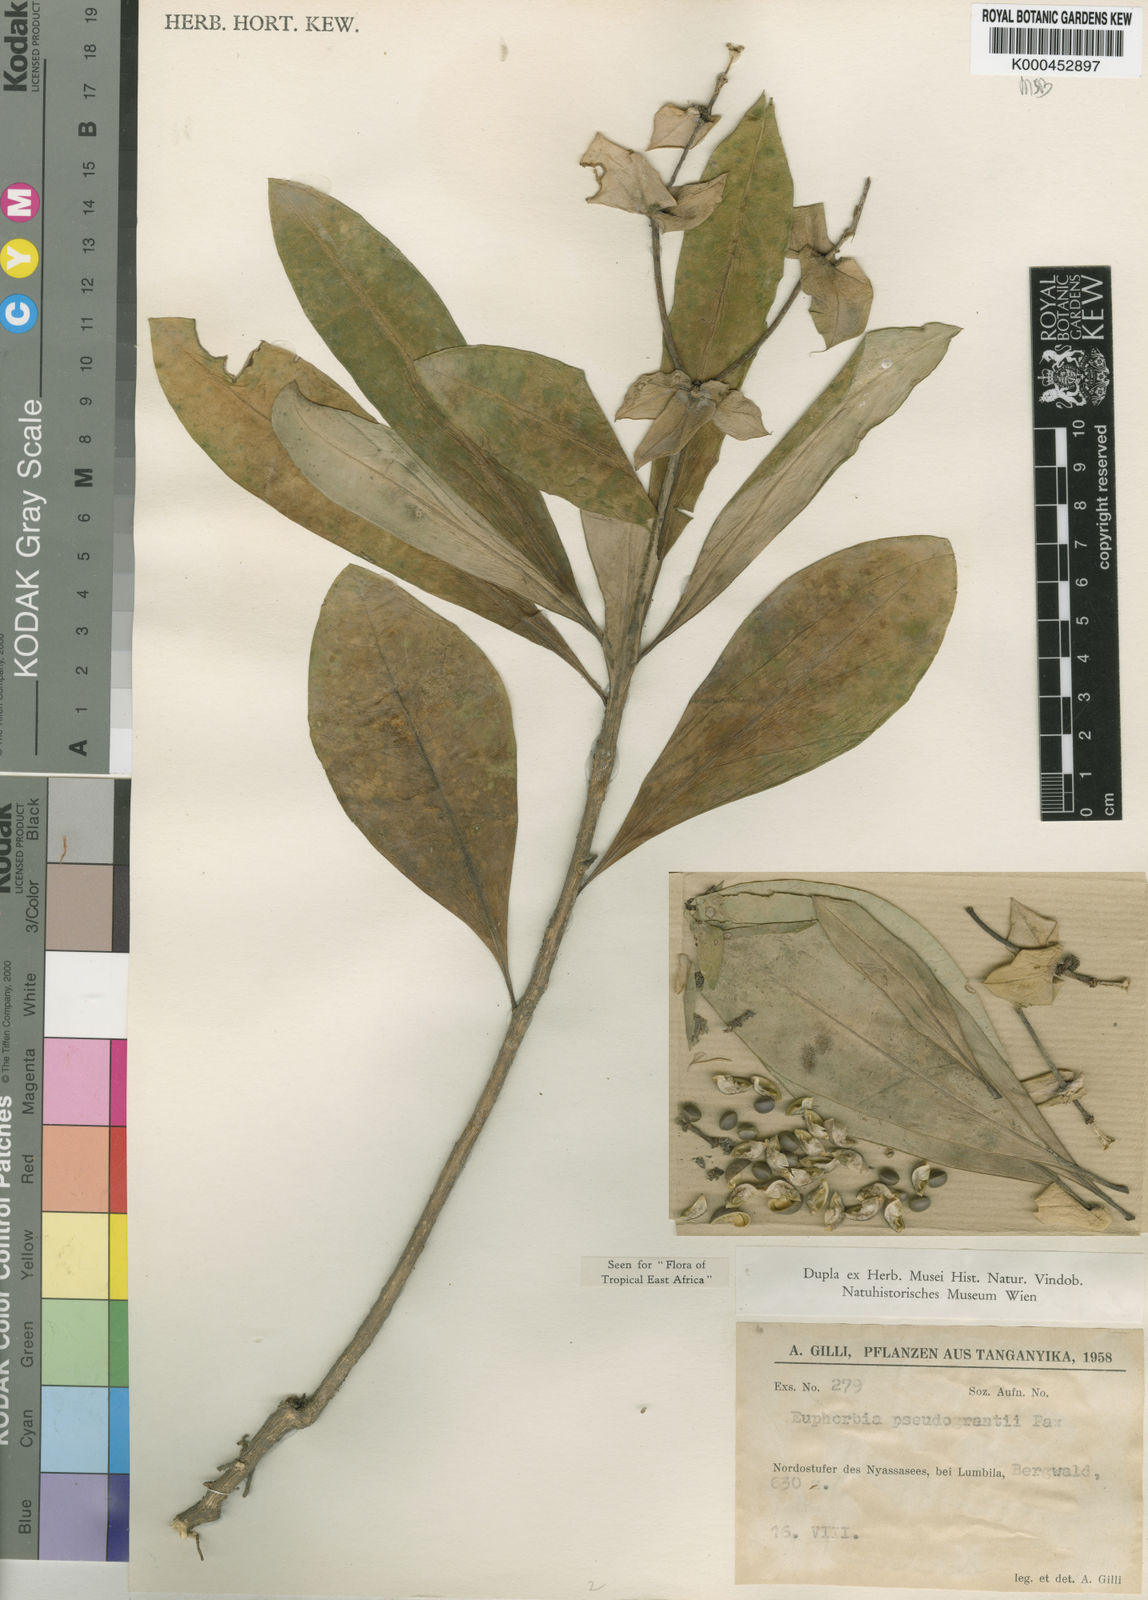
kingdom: Plantae
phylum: Tracheophyta
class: Magnoliopsida
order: Malpighiales
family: Euphorbiaceae
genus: Euphorbia
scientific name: Euphorbia pseudograntii
